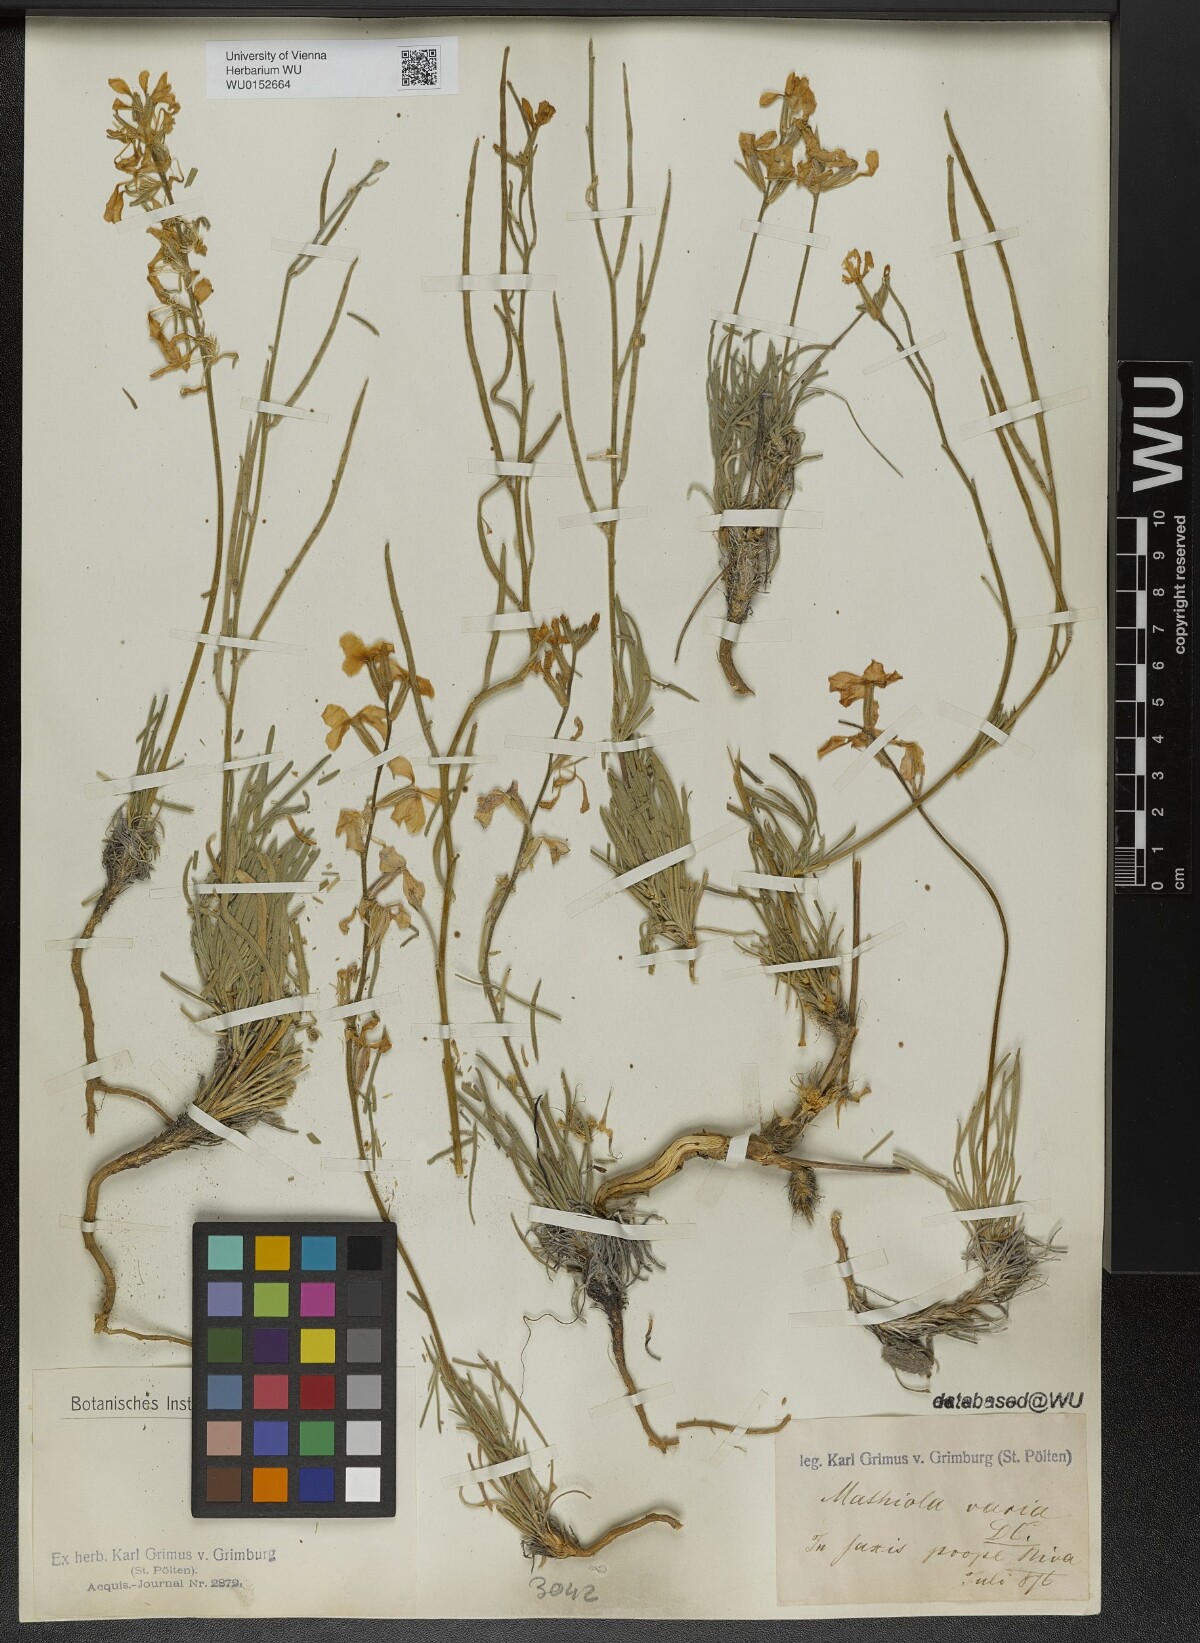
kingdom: Plantae
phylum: Tracheophyta
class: Magnoliopsida
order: Brassicales
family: Brassicaceae
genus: Matthiola
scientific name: Matthiola fruticulosa
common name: Sad stock
